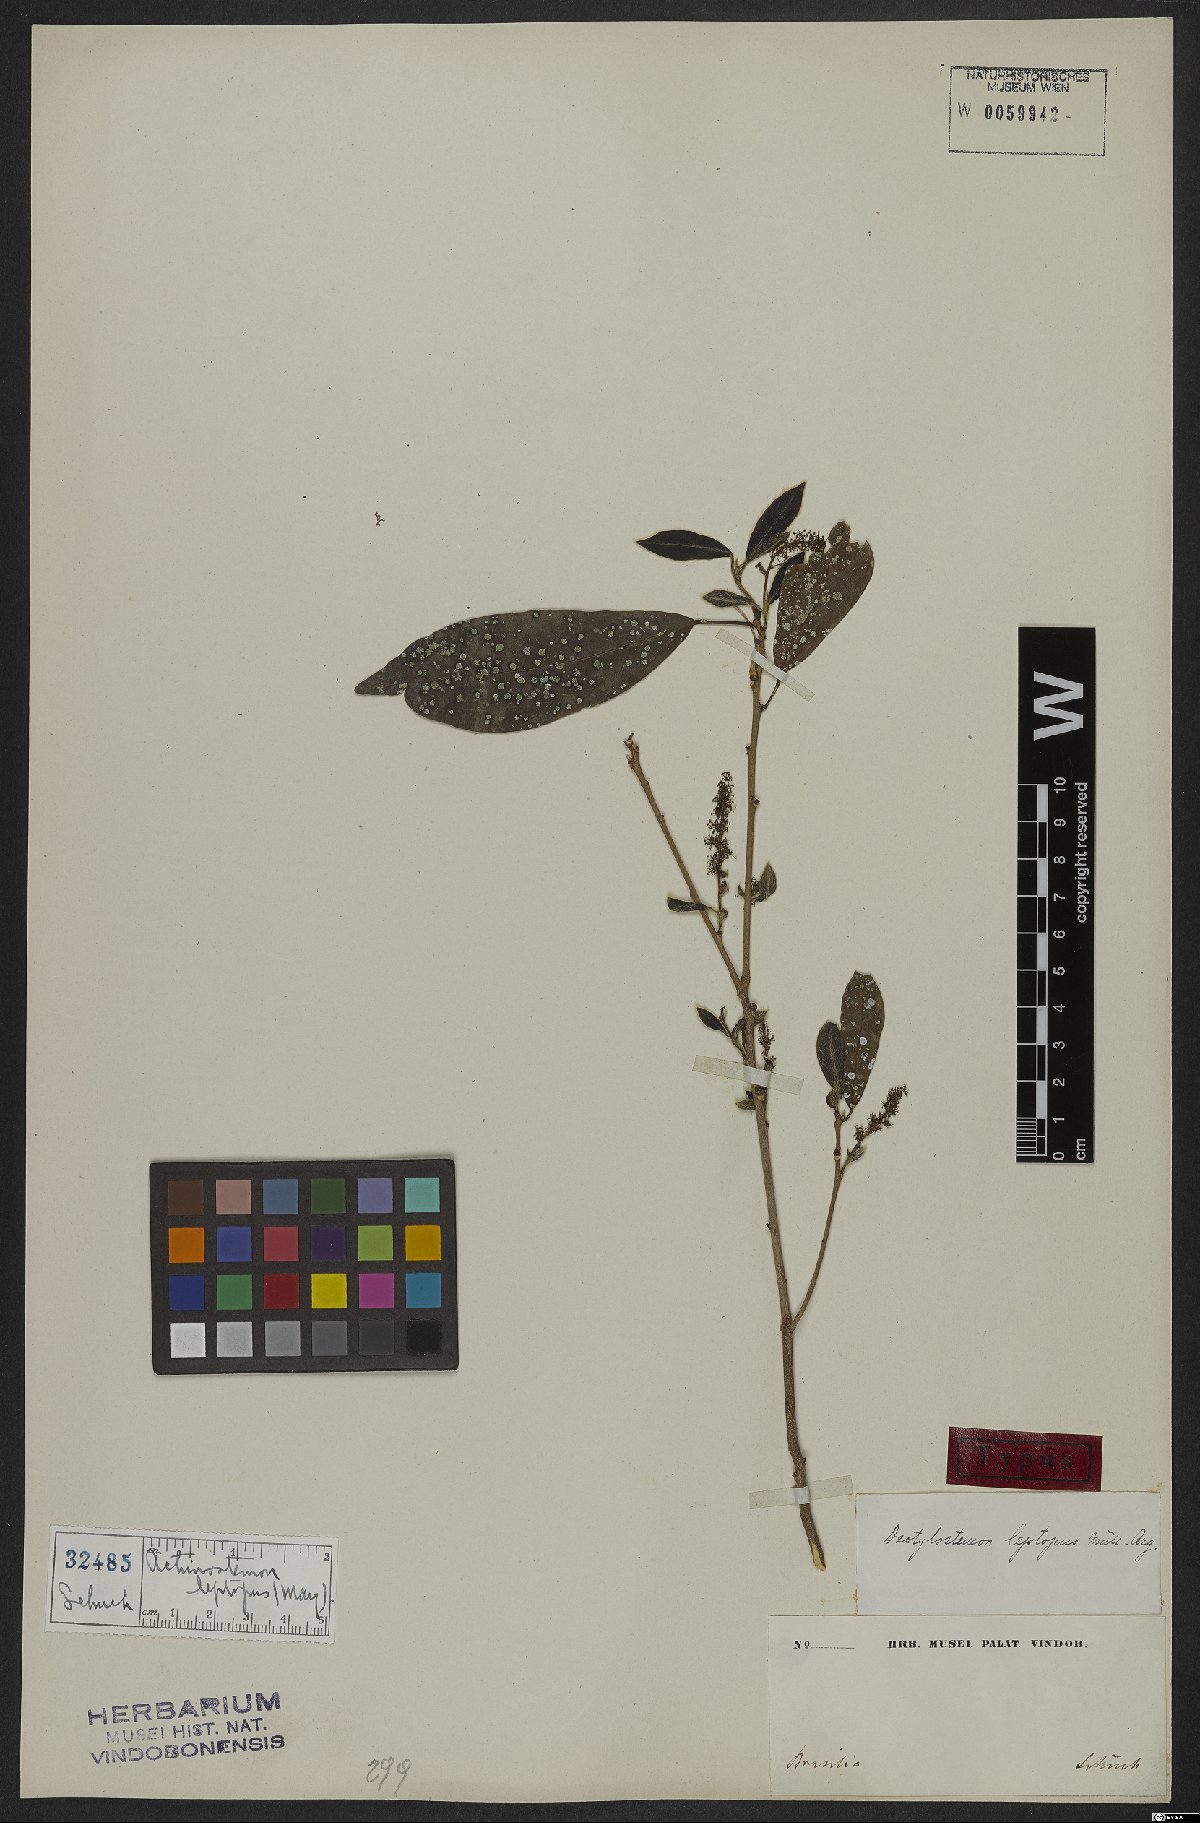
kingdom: Plantae
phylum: Tracheophyta
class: Magnoliopsida
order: Malpighiales
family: Euphorbiaceae
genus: Actinostemon
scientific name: Actinostemon leptopus
